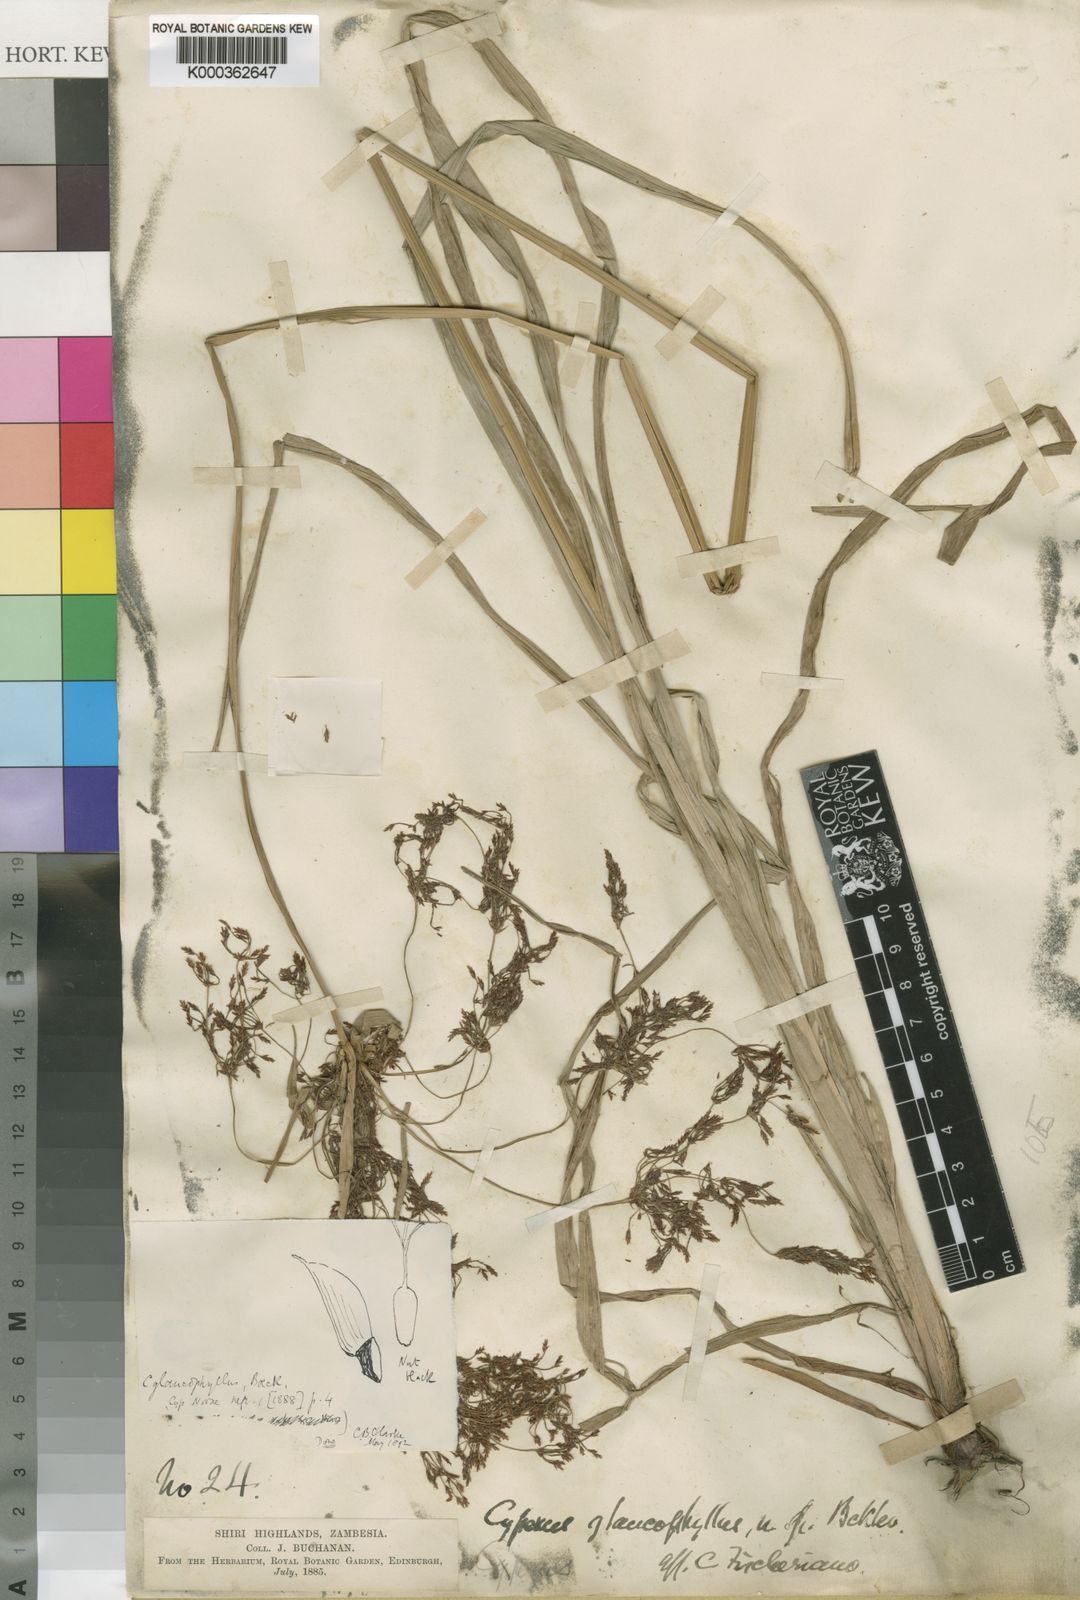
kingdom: Plantae
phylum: Tracheophyta
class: Liliopsida
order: Poales
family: Cyperaceae
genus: Cyperus
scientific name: Cyperus glaucophyllus
